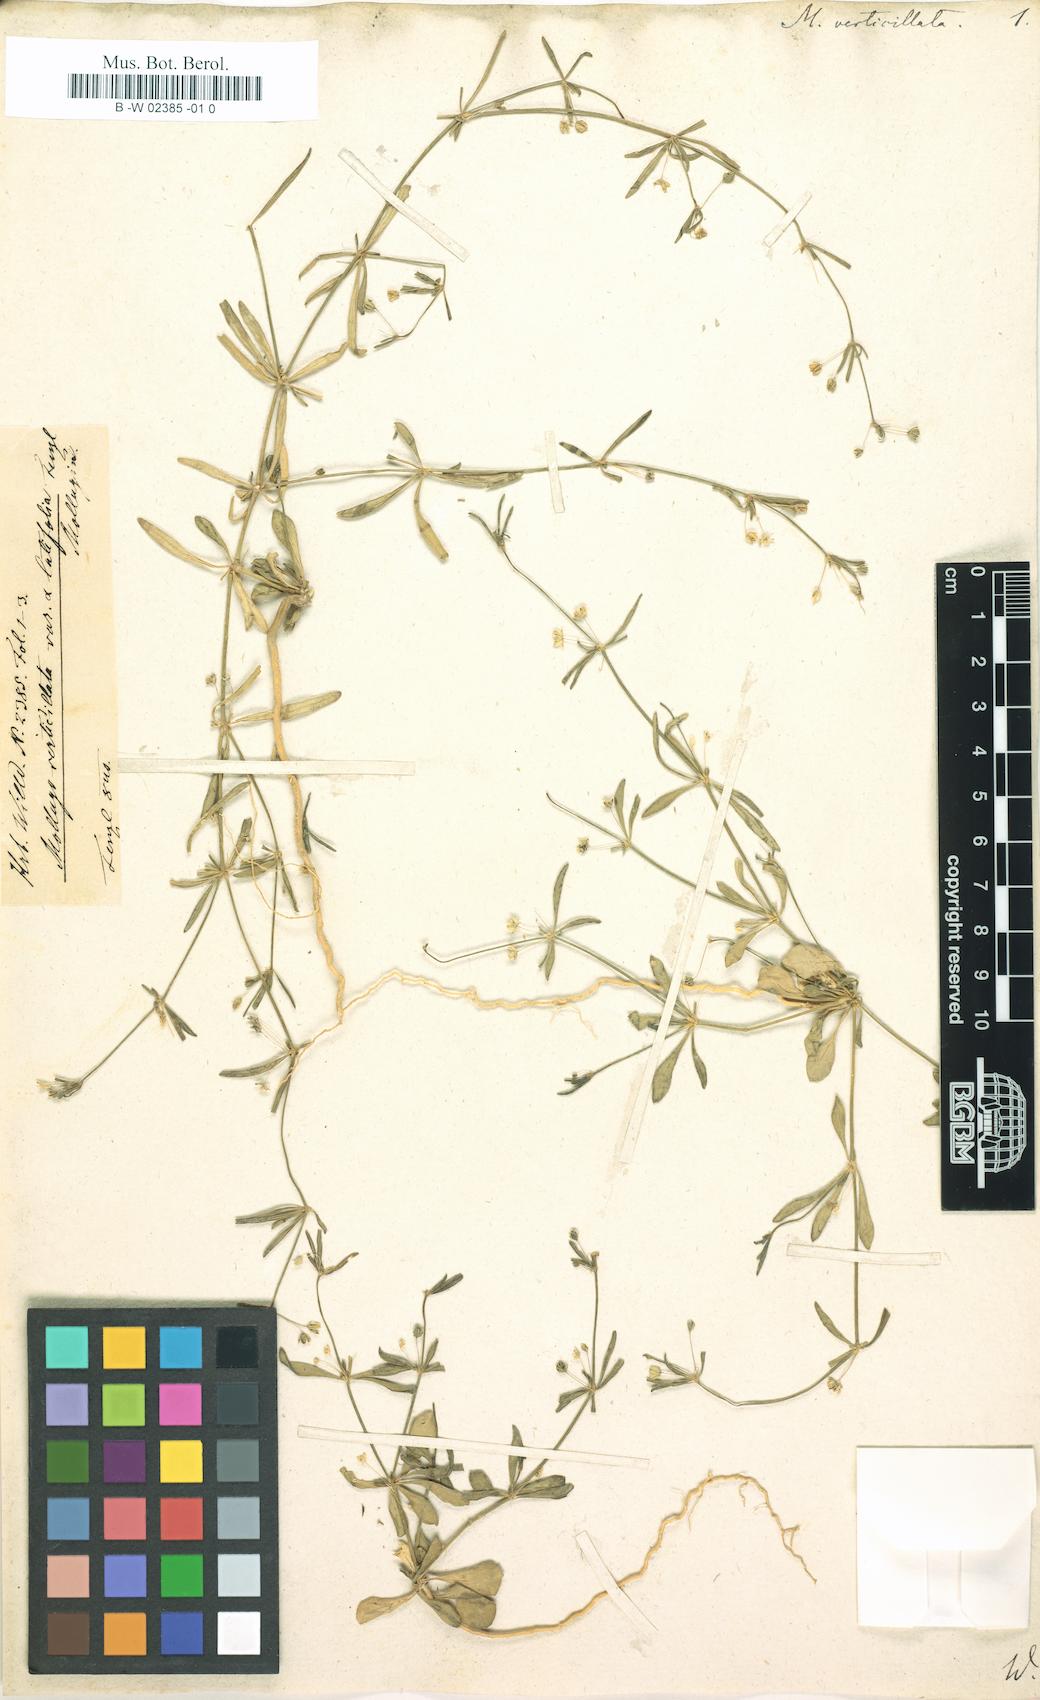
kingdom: Plantae
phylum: Tracheophyta
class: Magnoliopsida
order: Caryophyllales
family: Molluginaceae
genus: Mollugo
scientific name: Mollugo verticillata
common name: Green carpetweed
